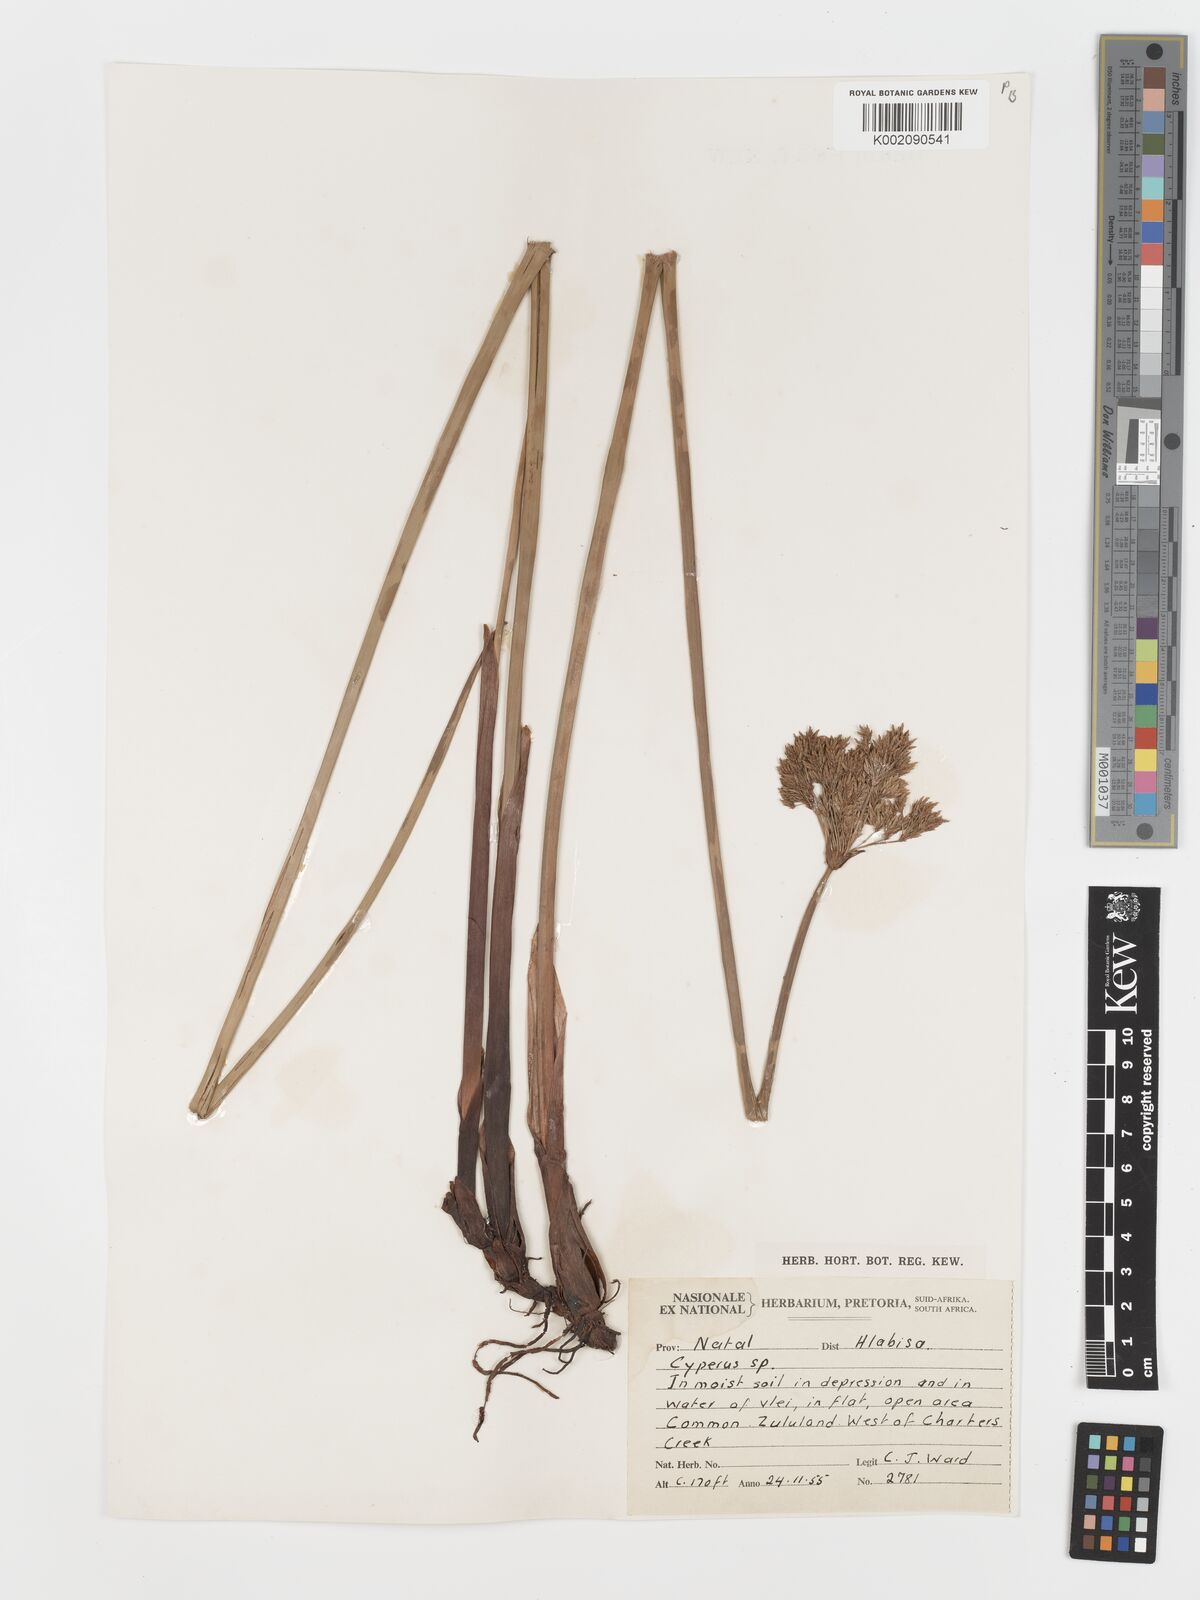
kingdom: Plantae
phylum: Tracheophyta
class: Liliopsida
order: Poales
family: Cyperaceae
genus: Cyperus
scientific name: Cyperus prolifer
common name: Miniature flatsedge
